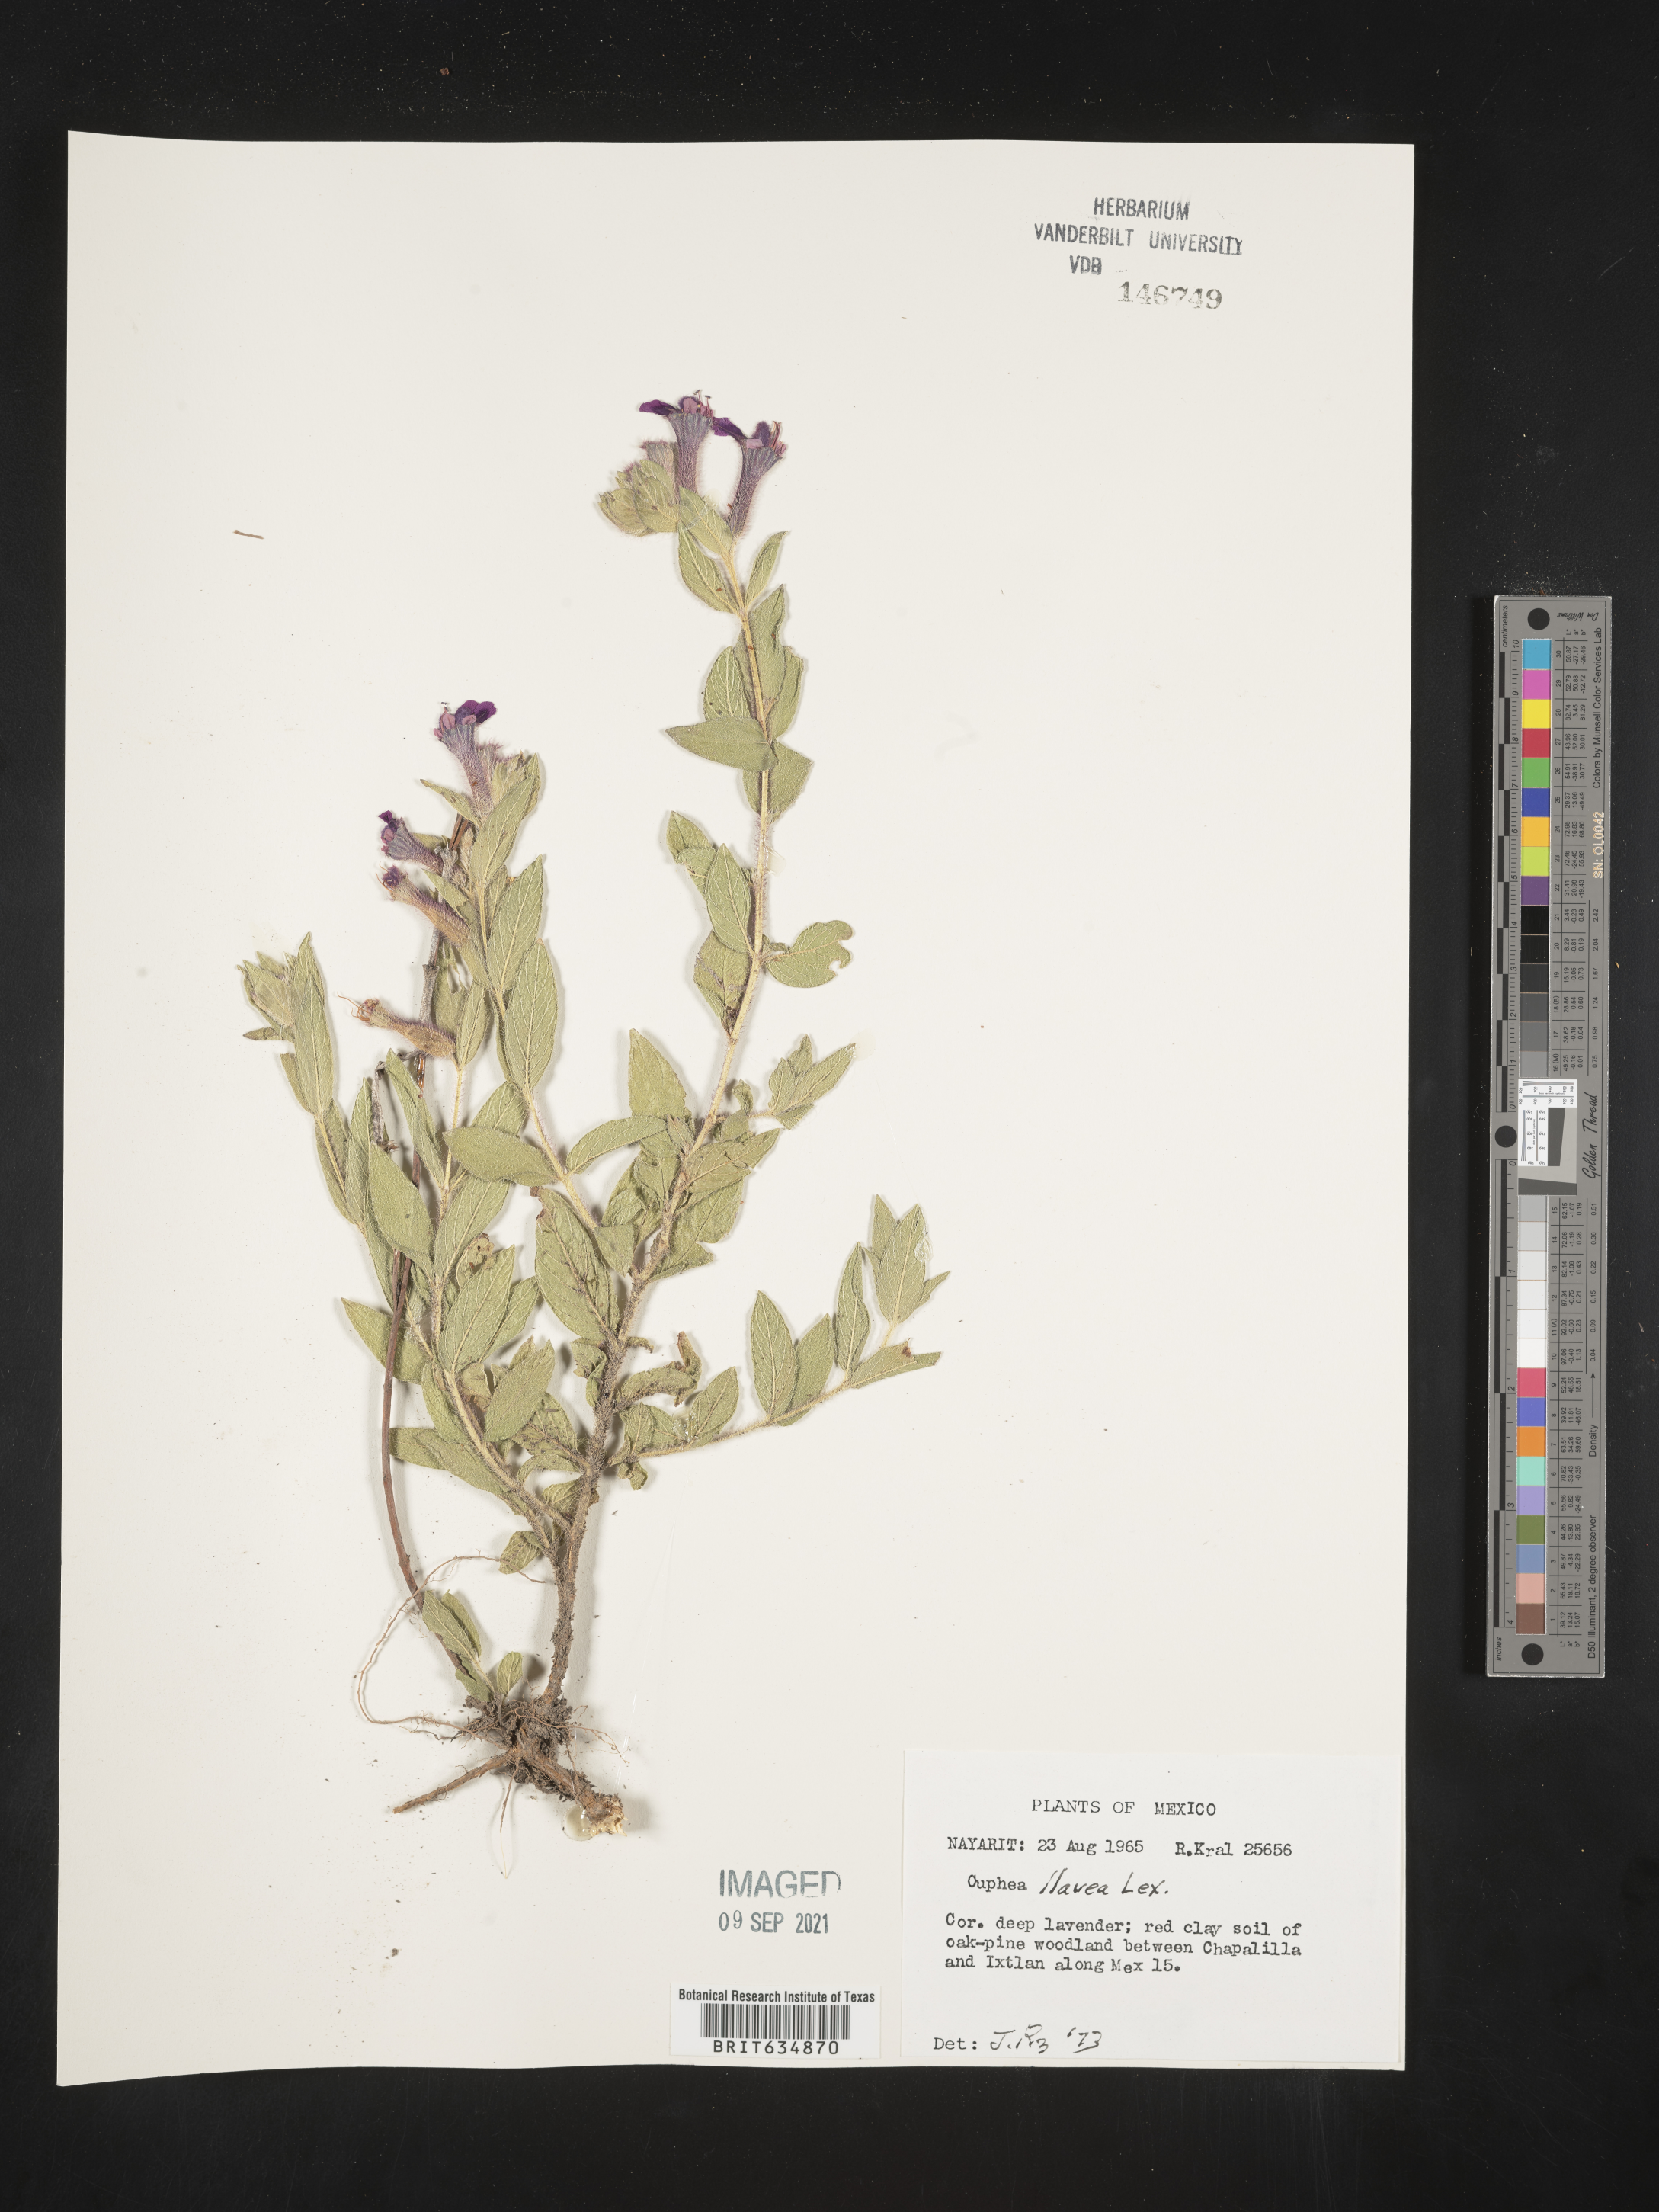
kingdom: Plantae
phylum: Tracheophyta
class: Magnoliopsida
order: Myrtales
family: Lythraceae
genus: Cuphea
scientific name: Cuphea
